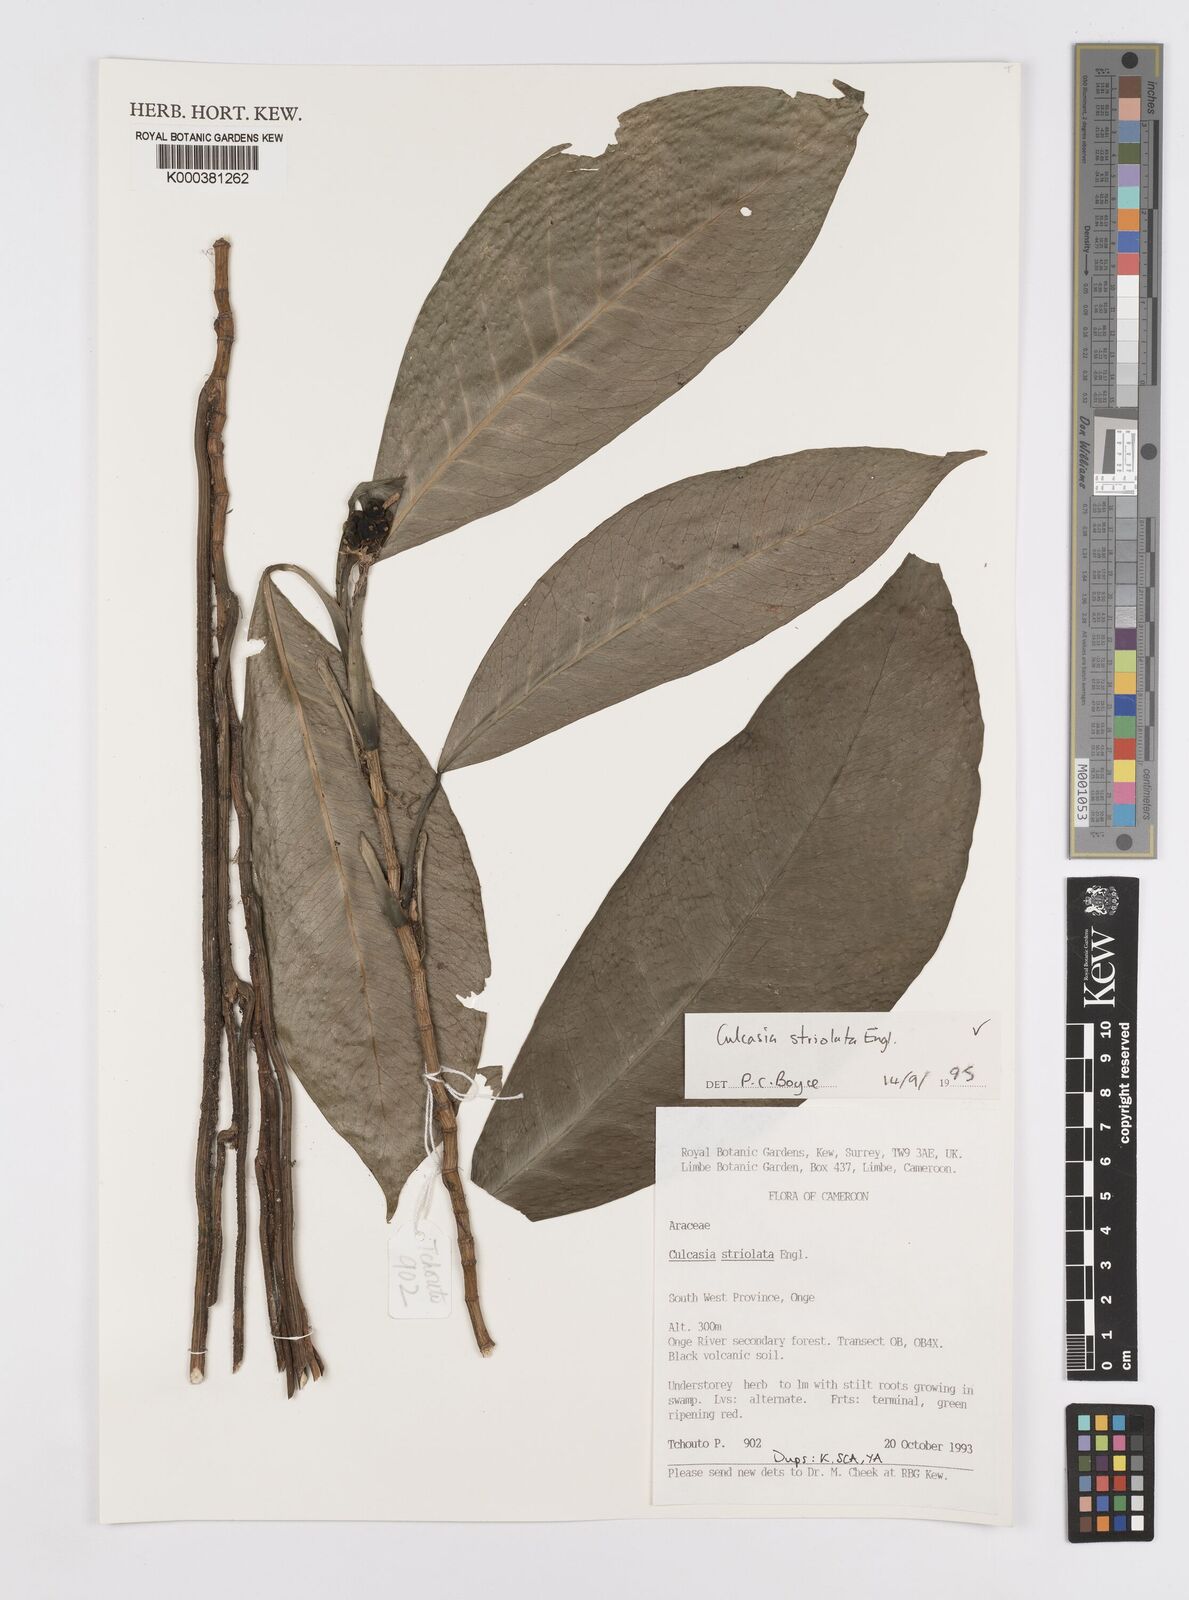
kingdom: Plantae
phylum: Tracheophyta
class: Liliopsida
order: Alismatales
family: Araceae
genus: Culcasia
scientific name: Culcasia striolata
